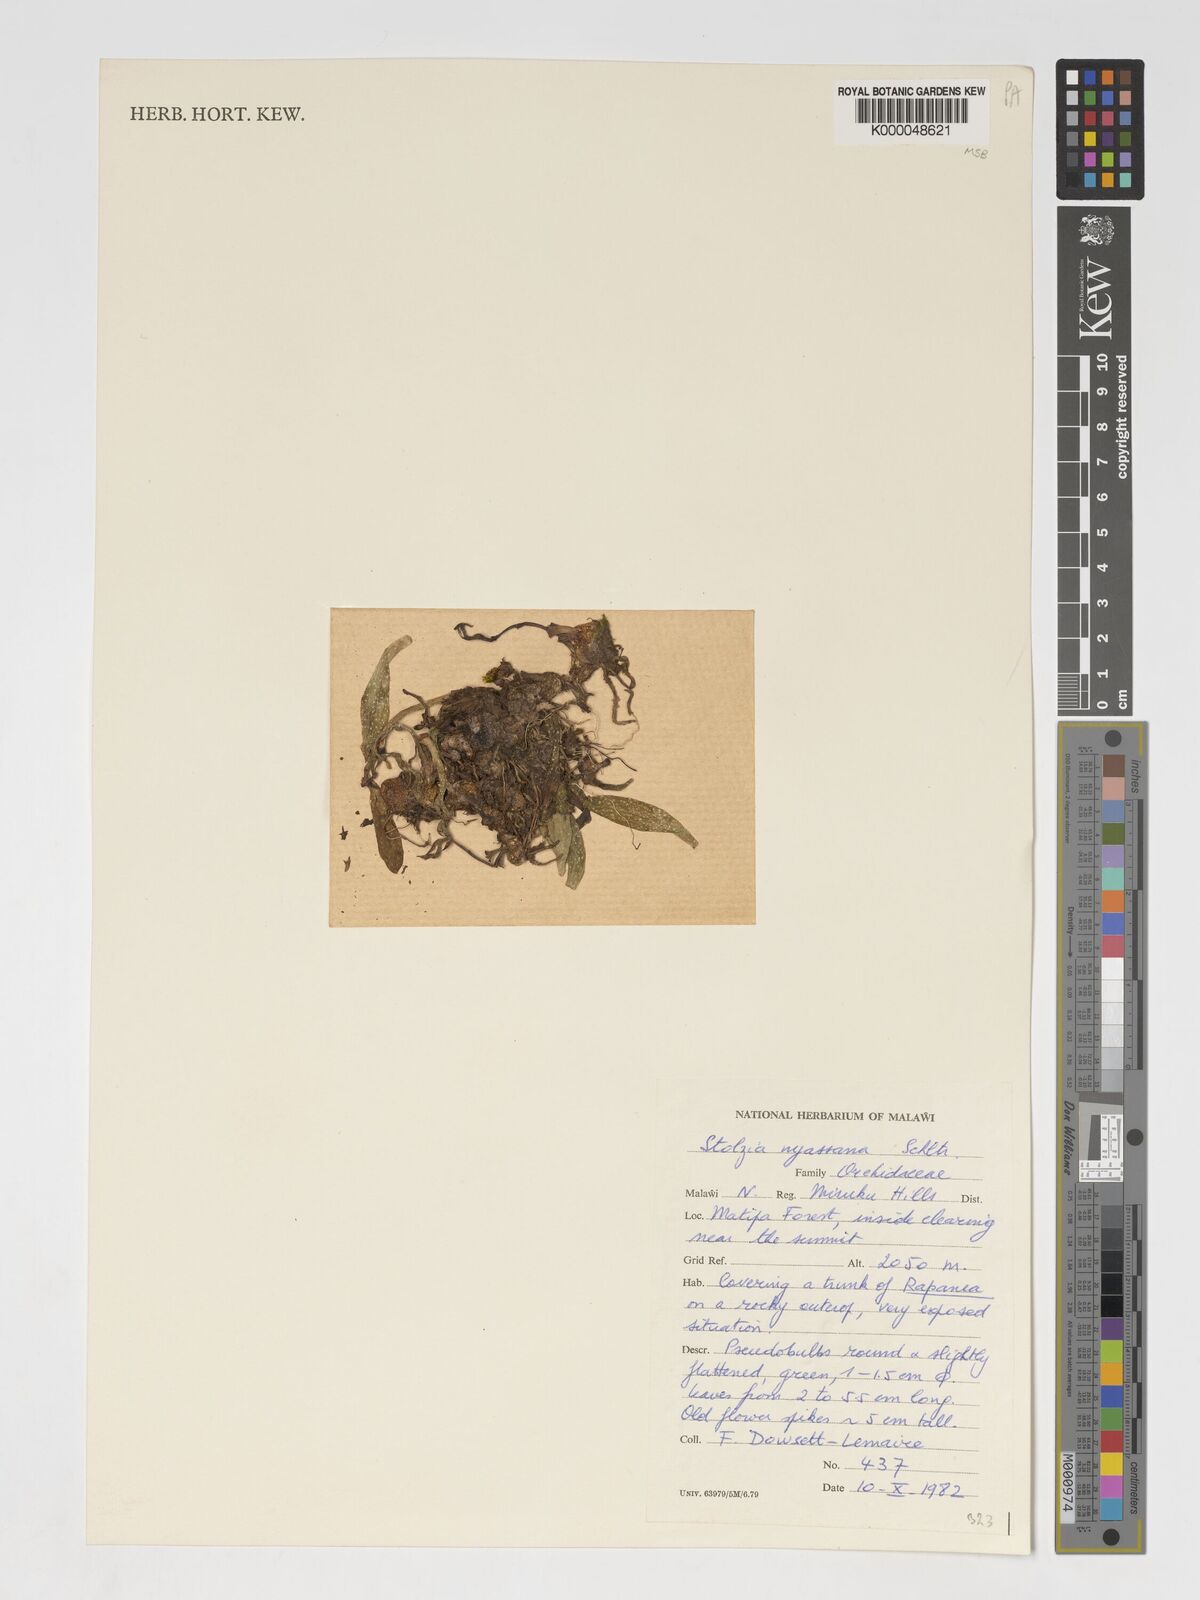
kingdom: Plantae
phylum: Tracheophyta
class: Liliopsida
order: Asparagales
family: Orchidaceae
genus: Porpax
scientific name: Porpax nyassana
